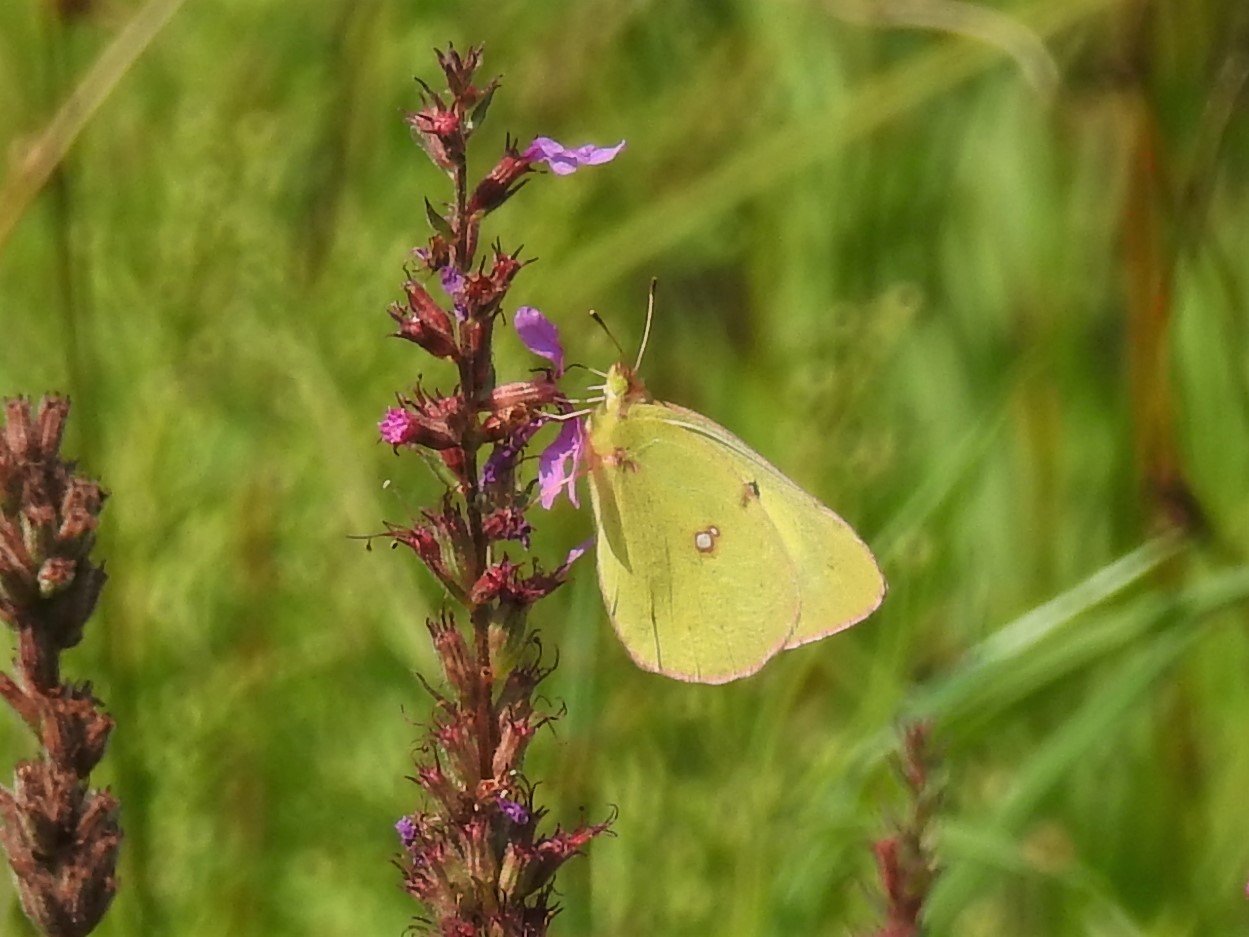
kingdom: Animalia
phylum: Arthropoda
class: Insecta
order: Lepidoptera
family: Pieridae
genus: Colias
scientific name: Colias philodice
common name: Clouded Sulphur
